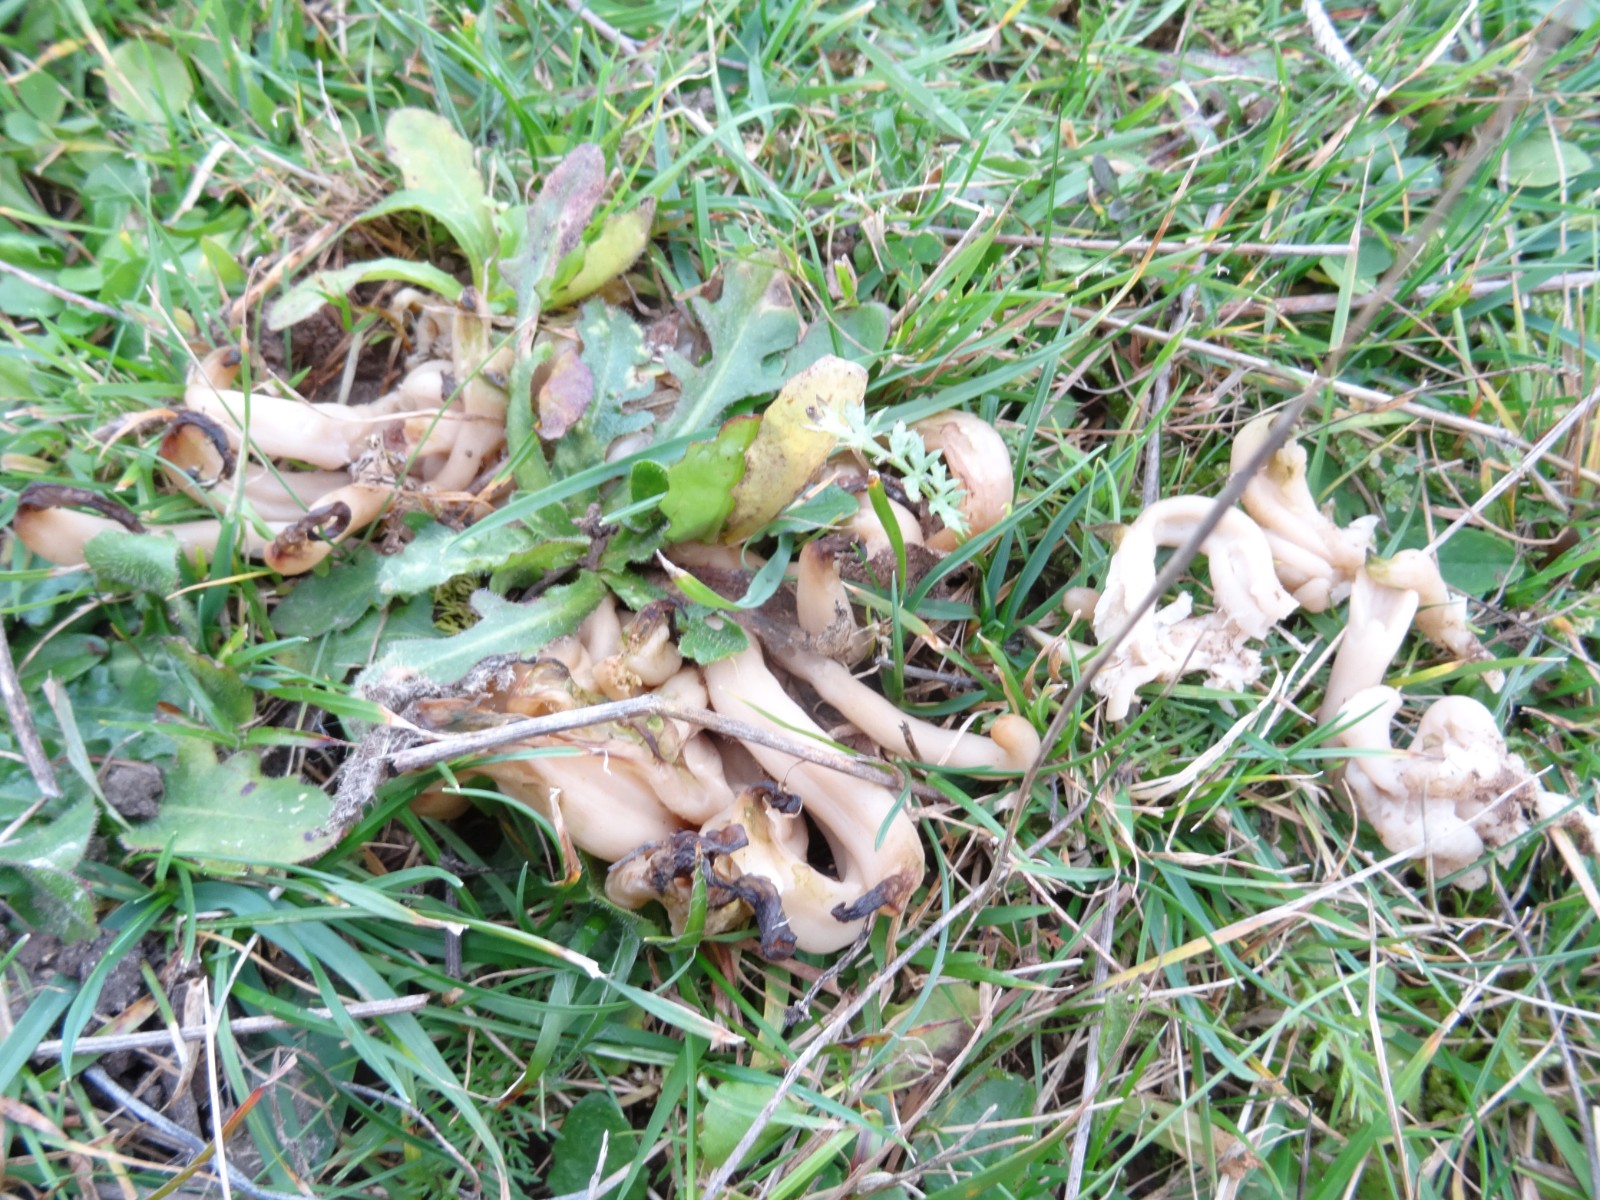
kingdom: Fungi
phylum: Basidiomycota
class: Agaricomycetes
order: Agaricales
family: Clavariaceae
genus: Clavaria
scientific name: Clavaria fumosa
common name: røggrå køllesvamp
